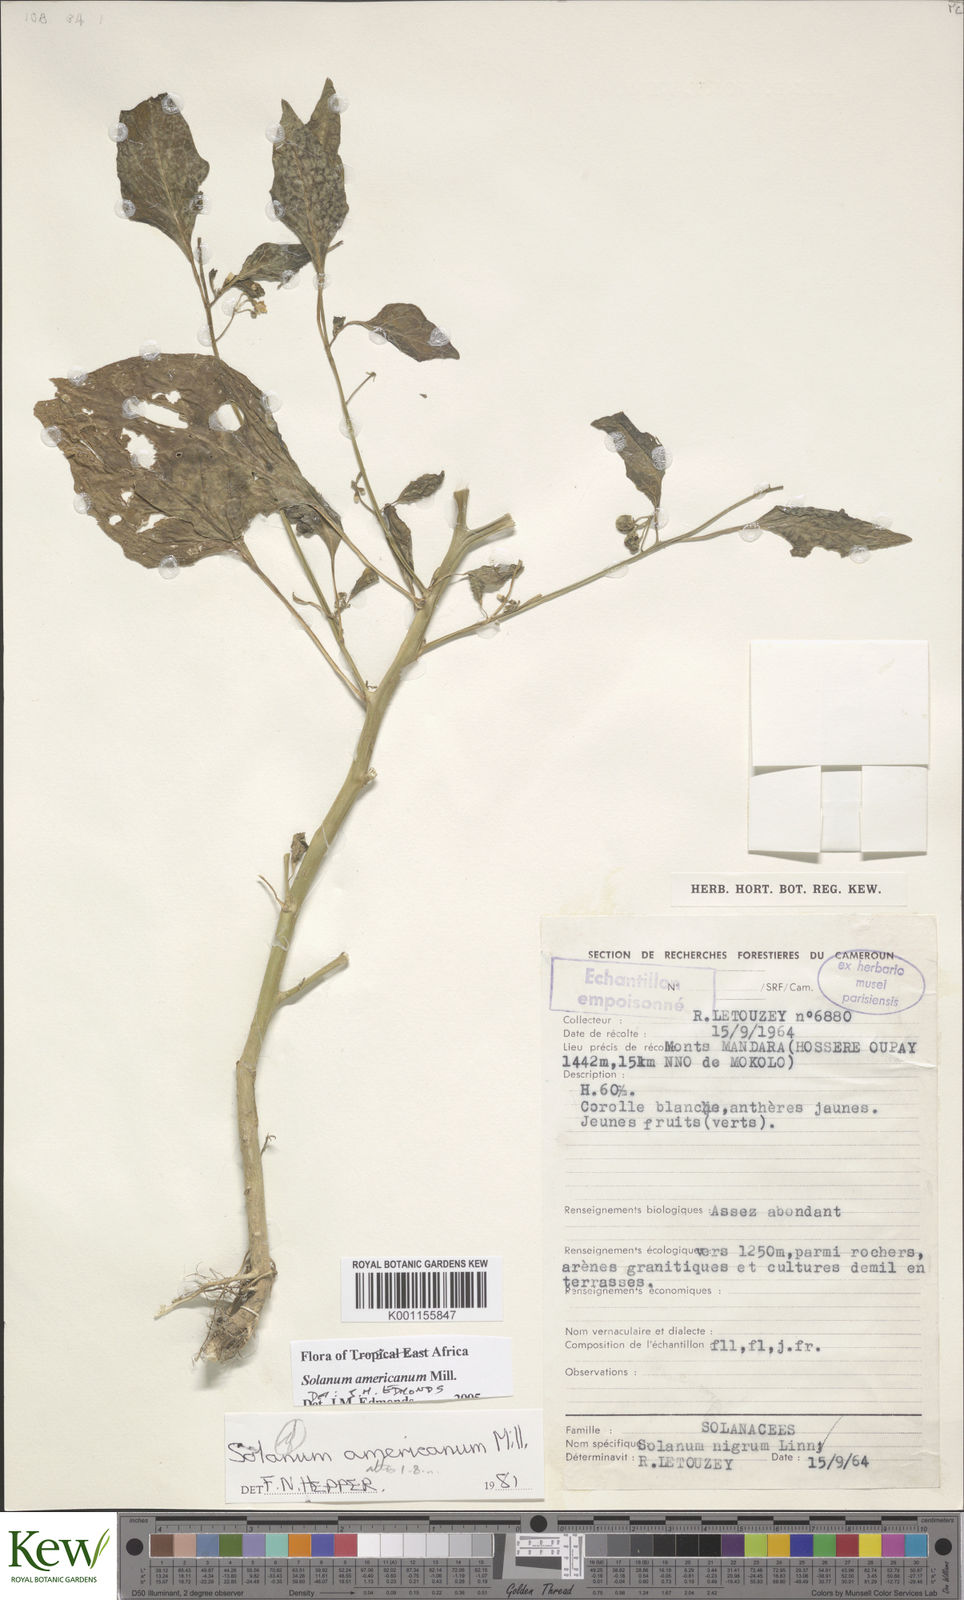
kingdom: Plantae
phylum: Tracheophyta
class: Magnoliopsida
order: Solanales
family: Solanaceae
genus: Solanum
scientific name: Solanum scabrum
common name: Garden-huckleberry
